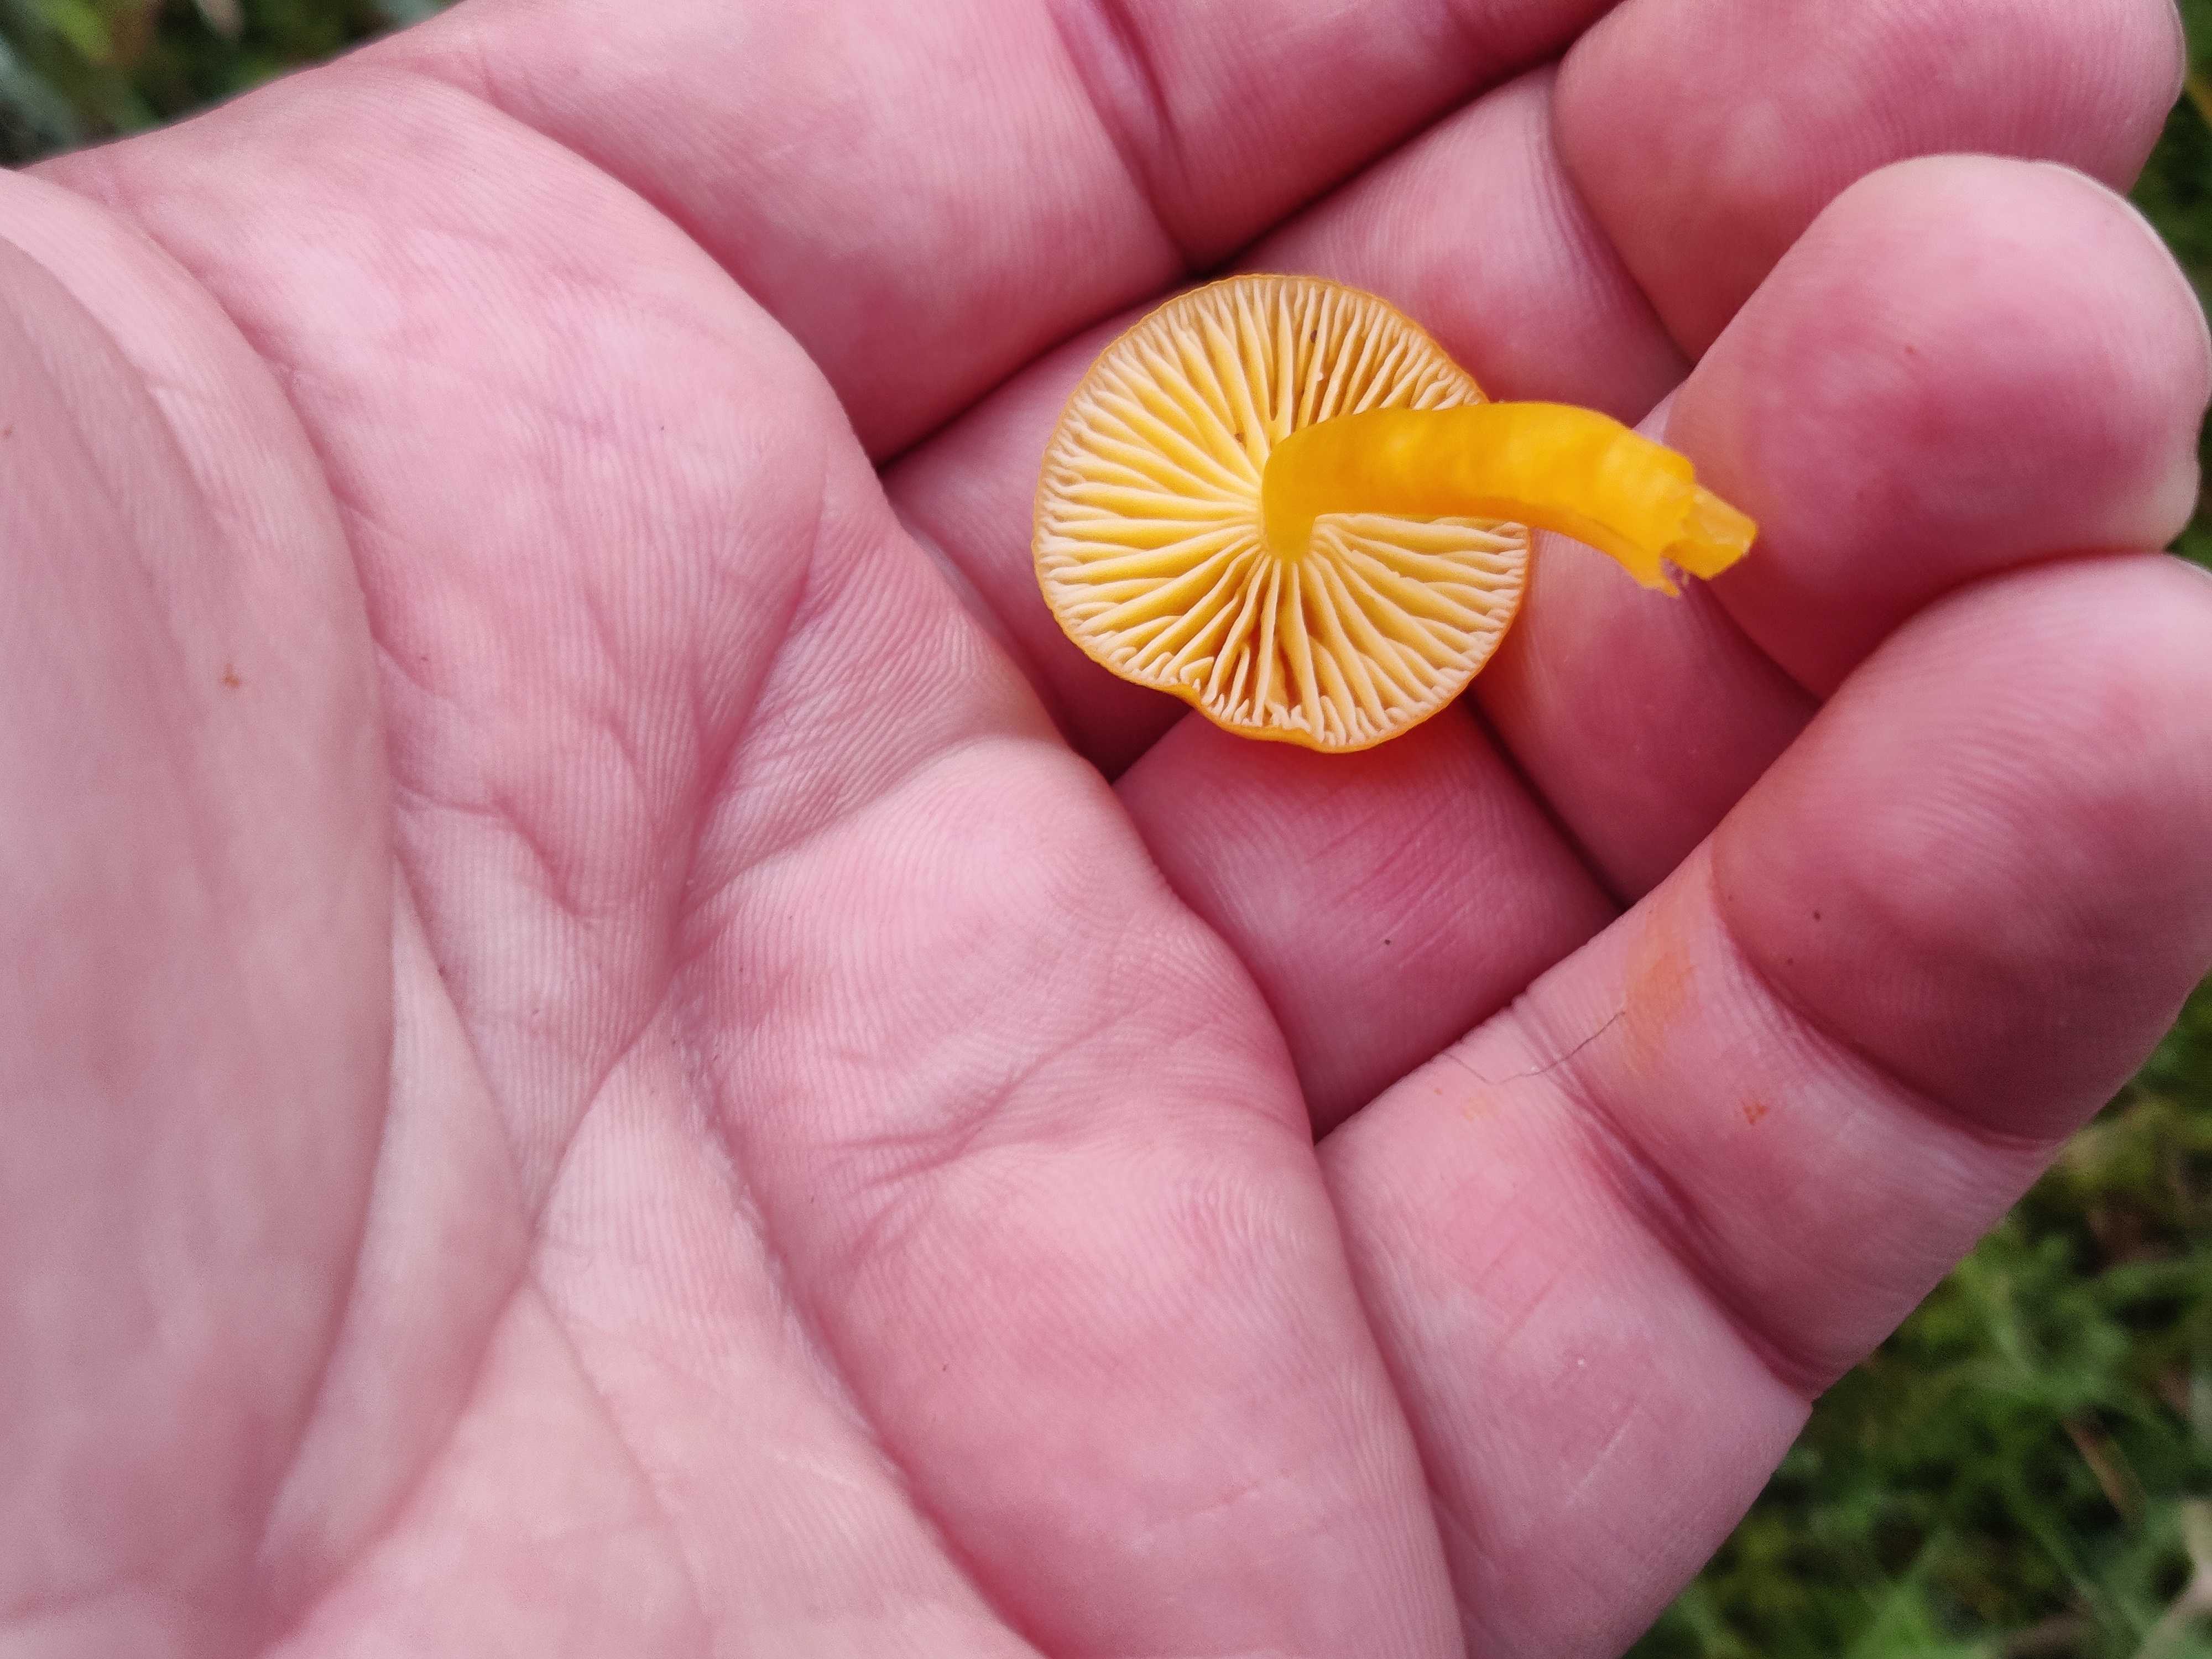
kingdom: Fungi
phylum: Basidiomycota
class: Agaricomycetes
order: Agaricales
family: Hygrophoraceae
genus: Hygrocybe
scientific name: Hygrocybe chlorophana
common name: gul vokshat
